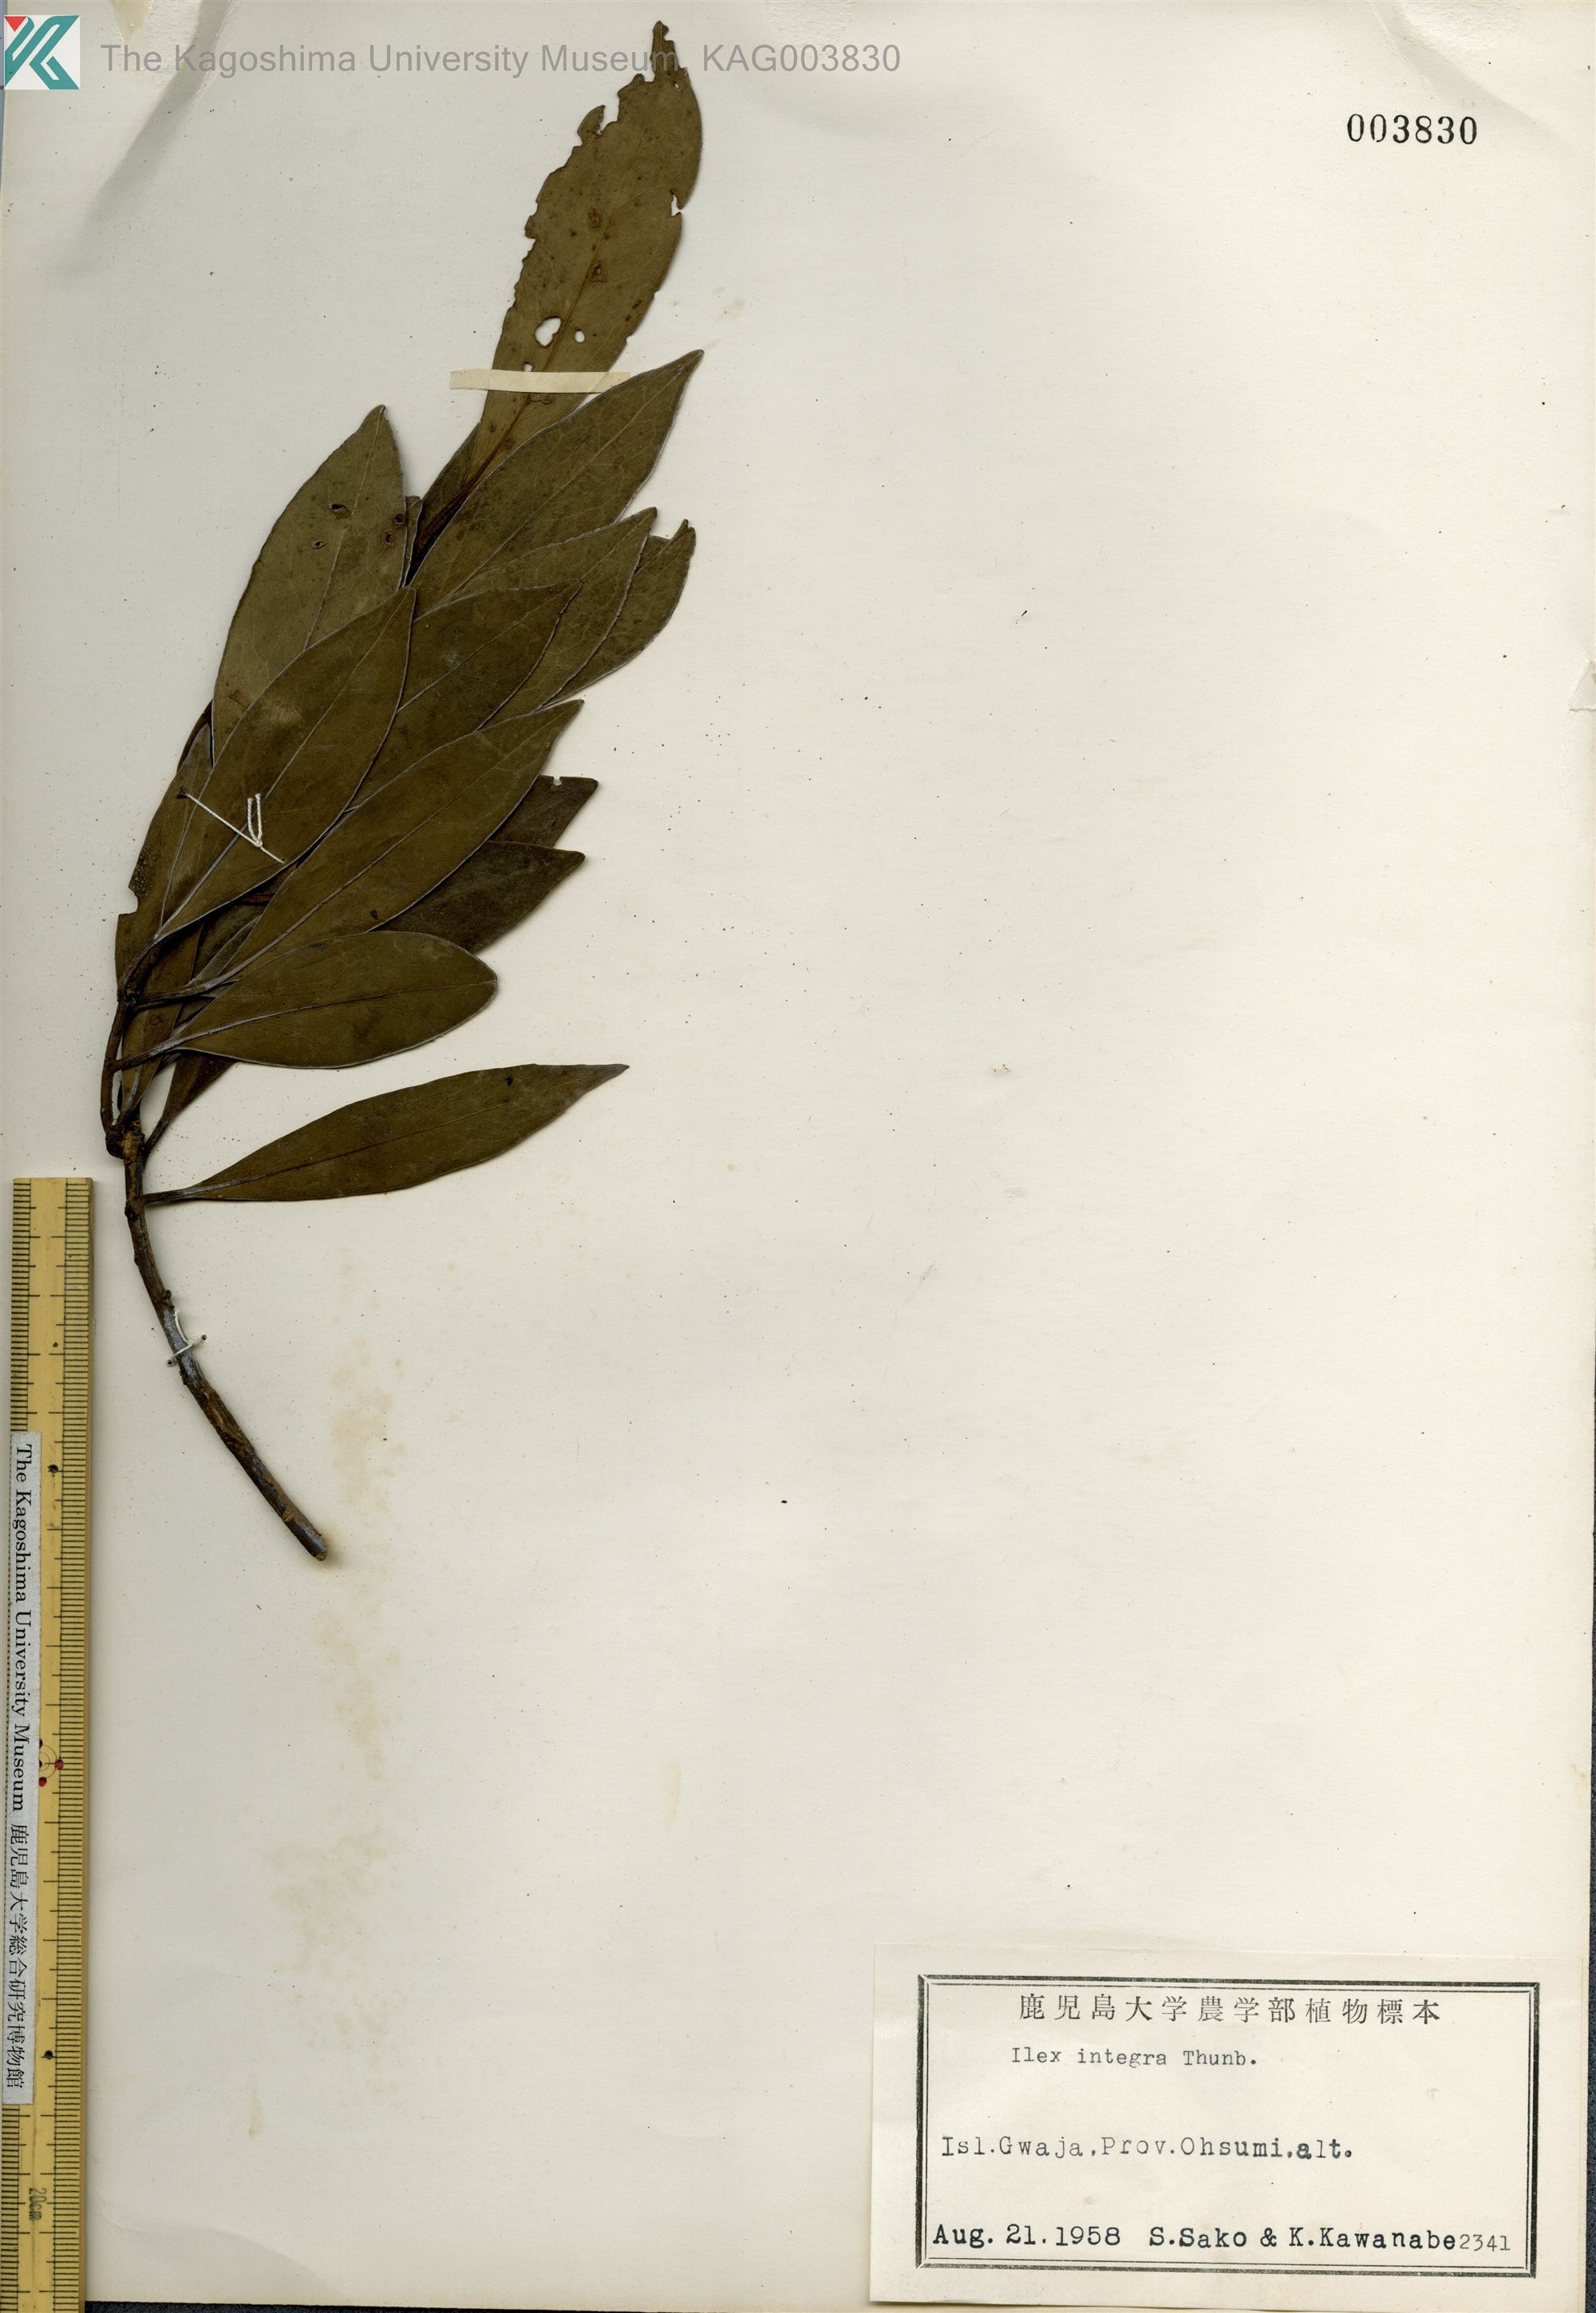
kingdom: Plantae
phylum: Tracheophyta
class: Magnoliopsida
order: Aquifoliales
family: Aquifoliaceae
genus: Ilex
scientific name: Ilex integra
